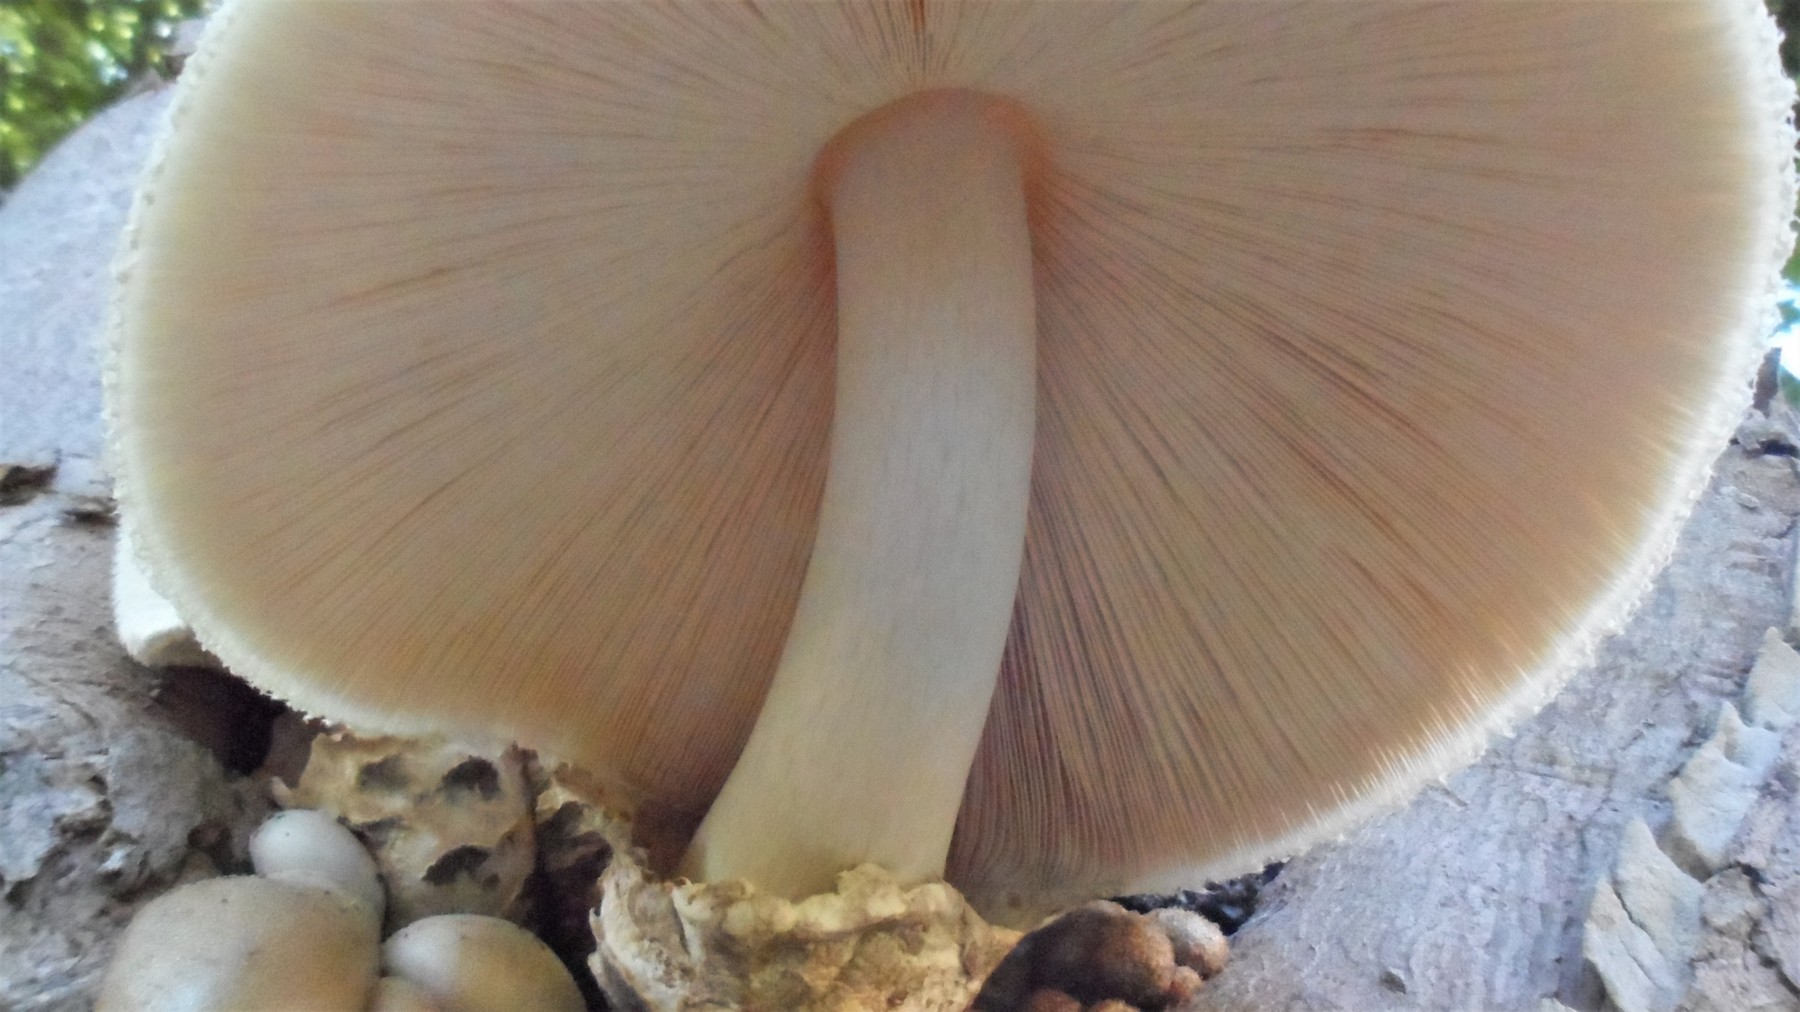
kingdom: Fungi
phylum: Basidiomycota
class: Agaricomycetes
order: Agaricales
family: Pluteaceae
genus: Volvariella
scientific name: Volvariella bombycina
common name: silkehåret posesvamp
